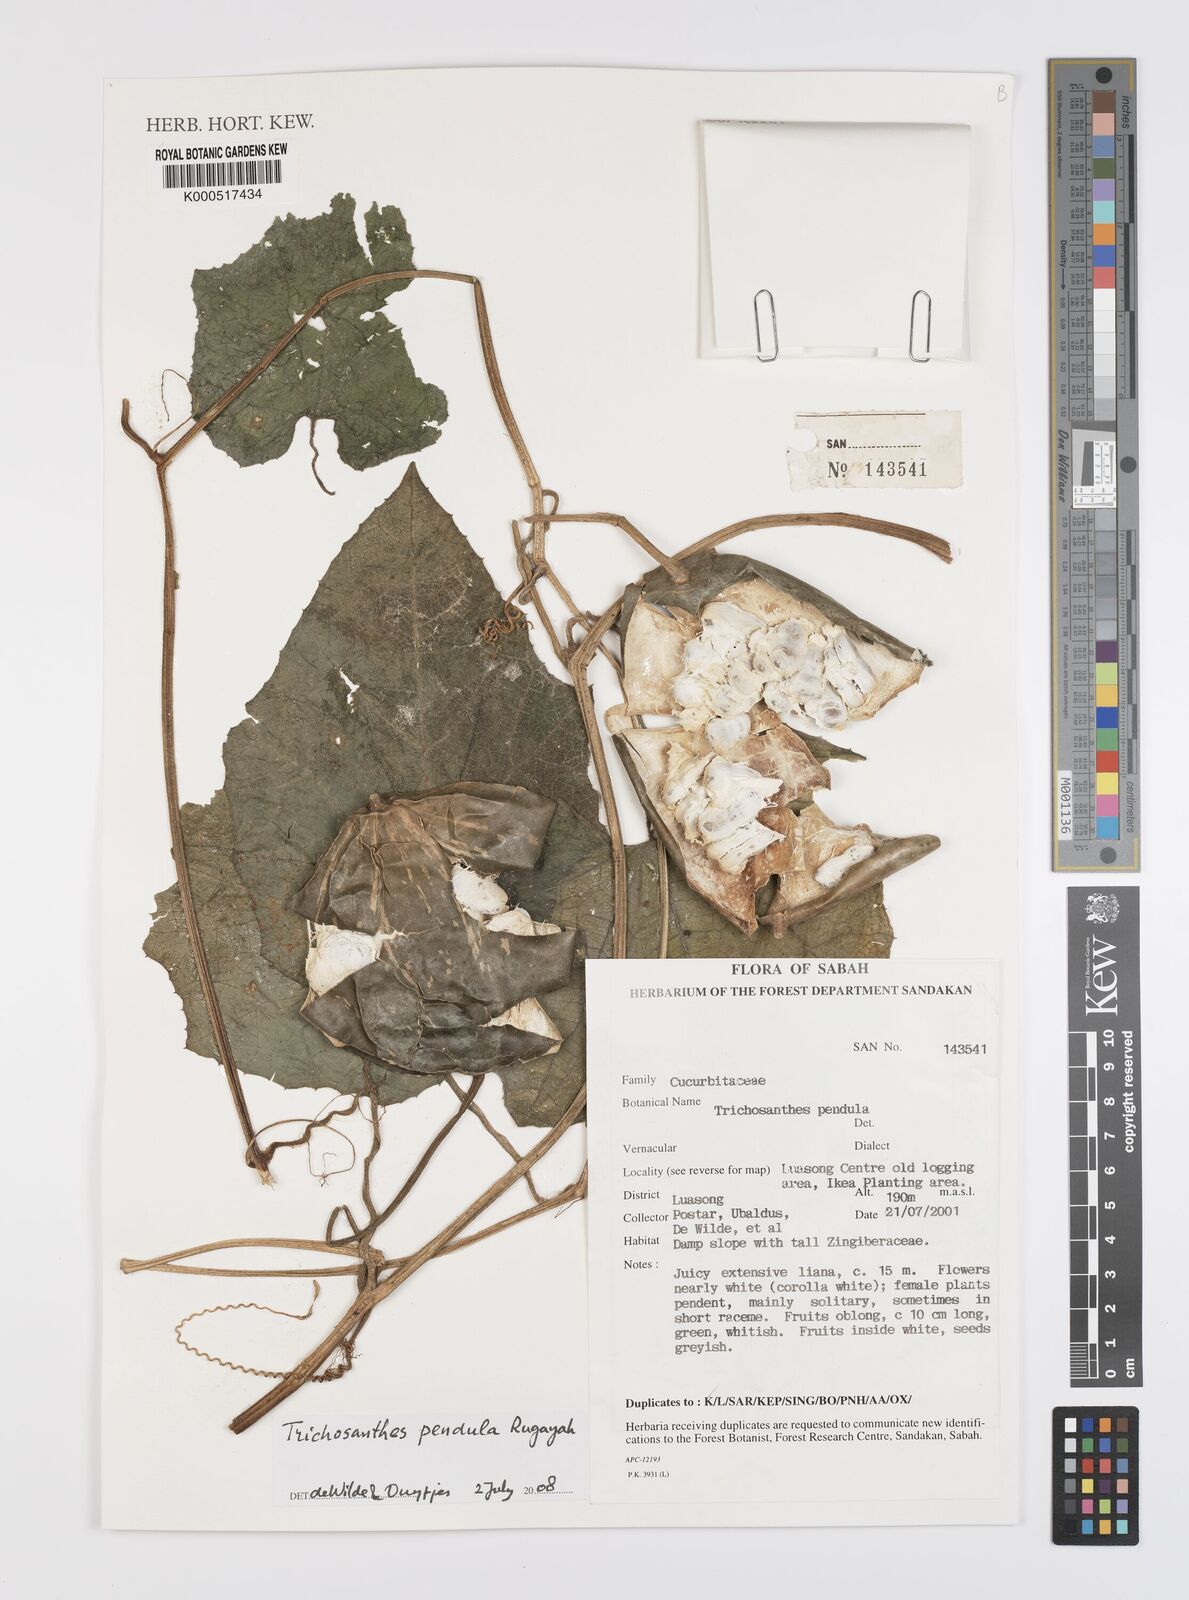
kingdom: Plantae
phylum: Tracheophyta
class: Magnoliopsida
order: Cucurbitales
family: Cucurbitaceae
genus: Trichosanthes
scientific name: Trichosanthes pendula
